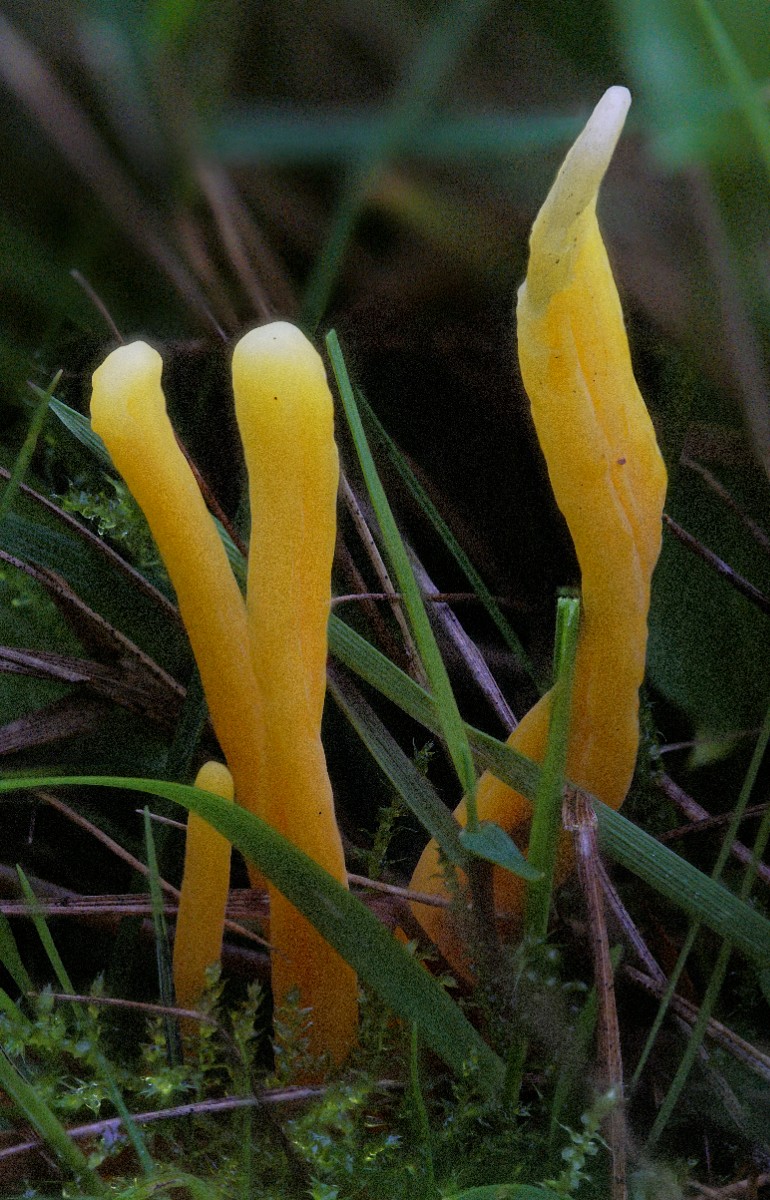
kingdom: Fungi
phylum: Basidiomycota
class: Agaricomycetes
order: Agaricales
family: Clavariaceae
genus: Clavulinopsis
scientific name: Clavulinopsis laeticolor
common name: flamme-køllesvamp
